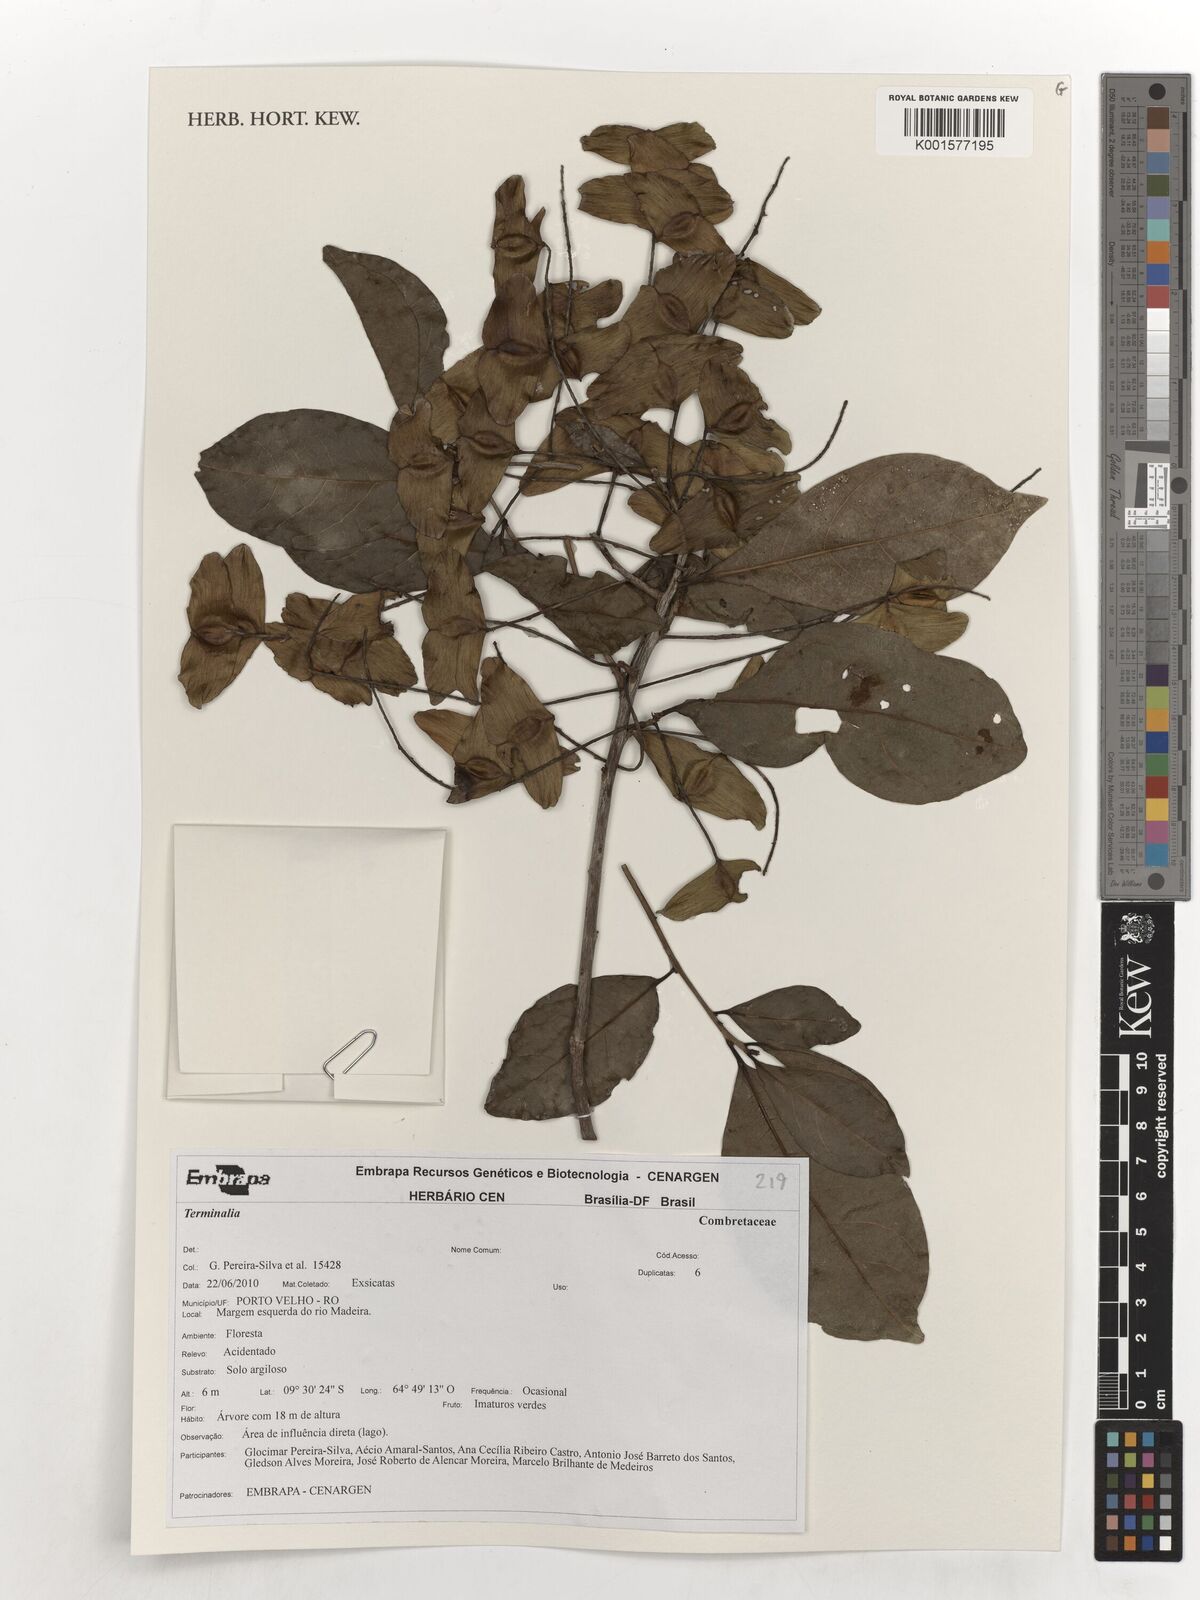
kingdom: Plantae
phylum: Tracheophyta
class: Magnoliopsida
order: Myrtales
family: Combretaceae
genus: Terminalia
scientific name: Terminalia
